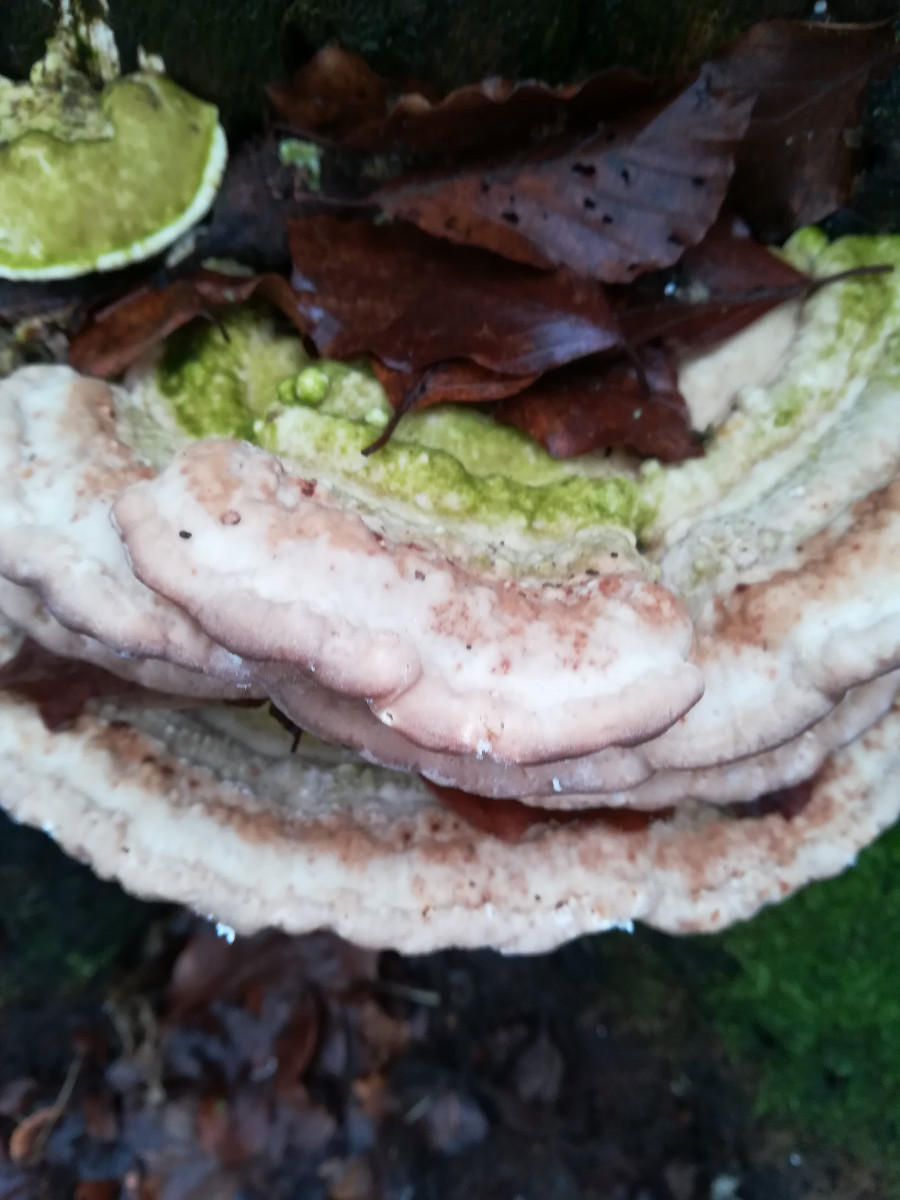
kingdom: Fungi
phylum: Basidiomycota
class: Agaricomycetes
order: Polyporales
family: Polyporaceae
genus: Trametes
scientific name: Trametes gibbosa
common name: puklet læderporesvamp
